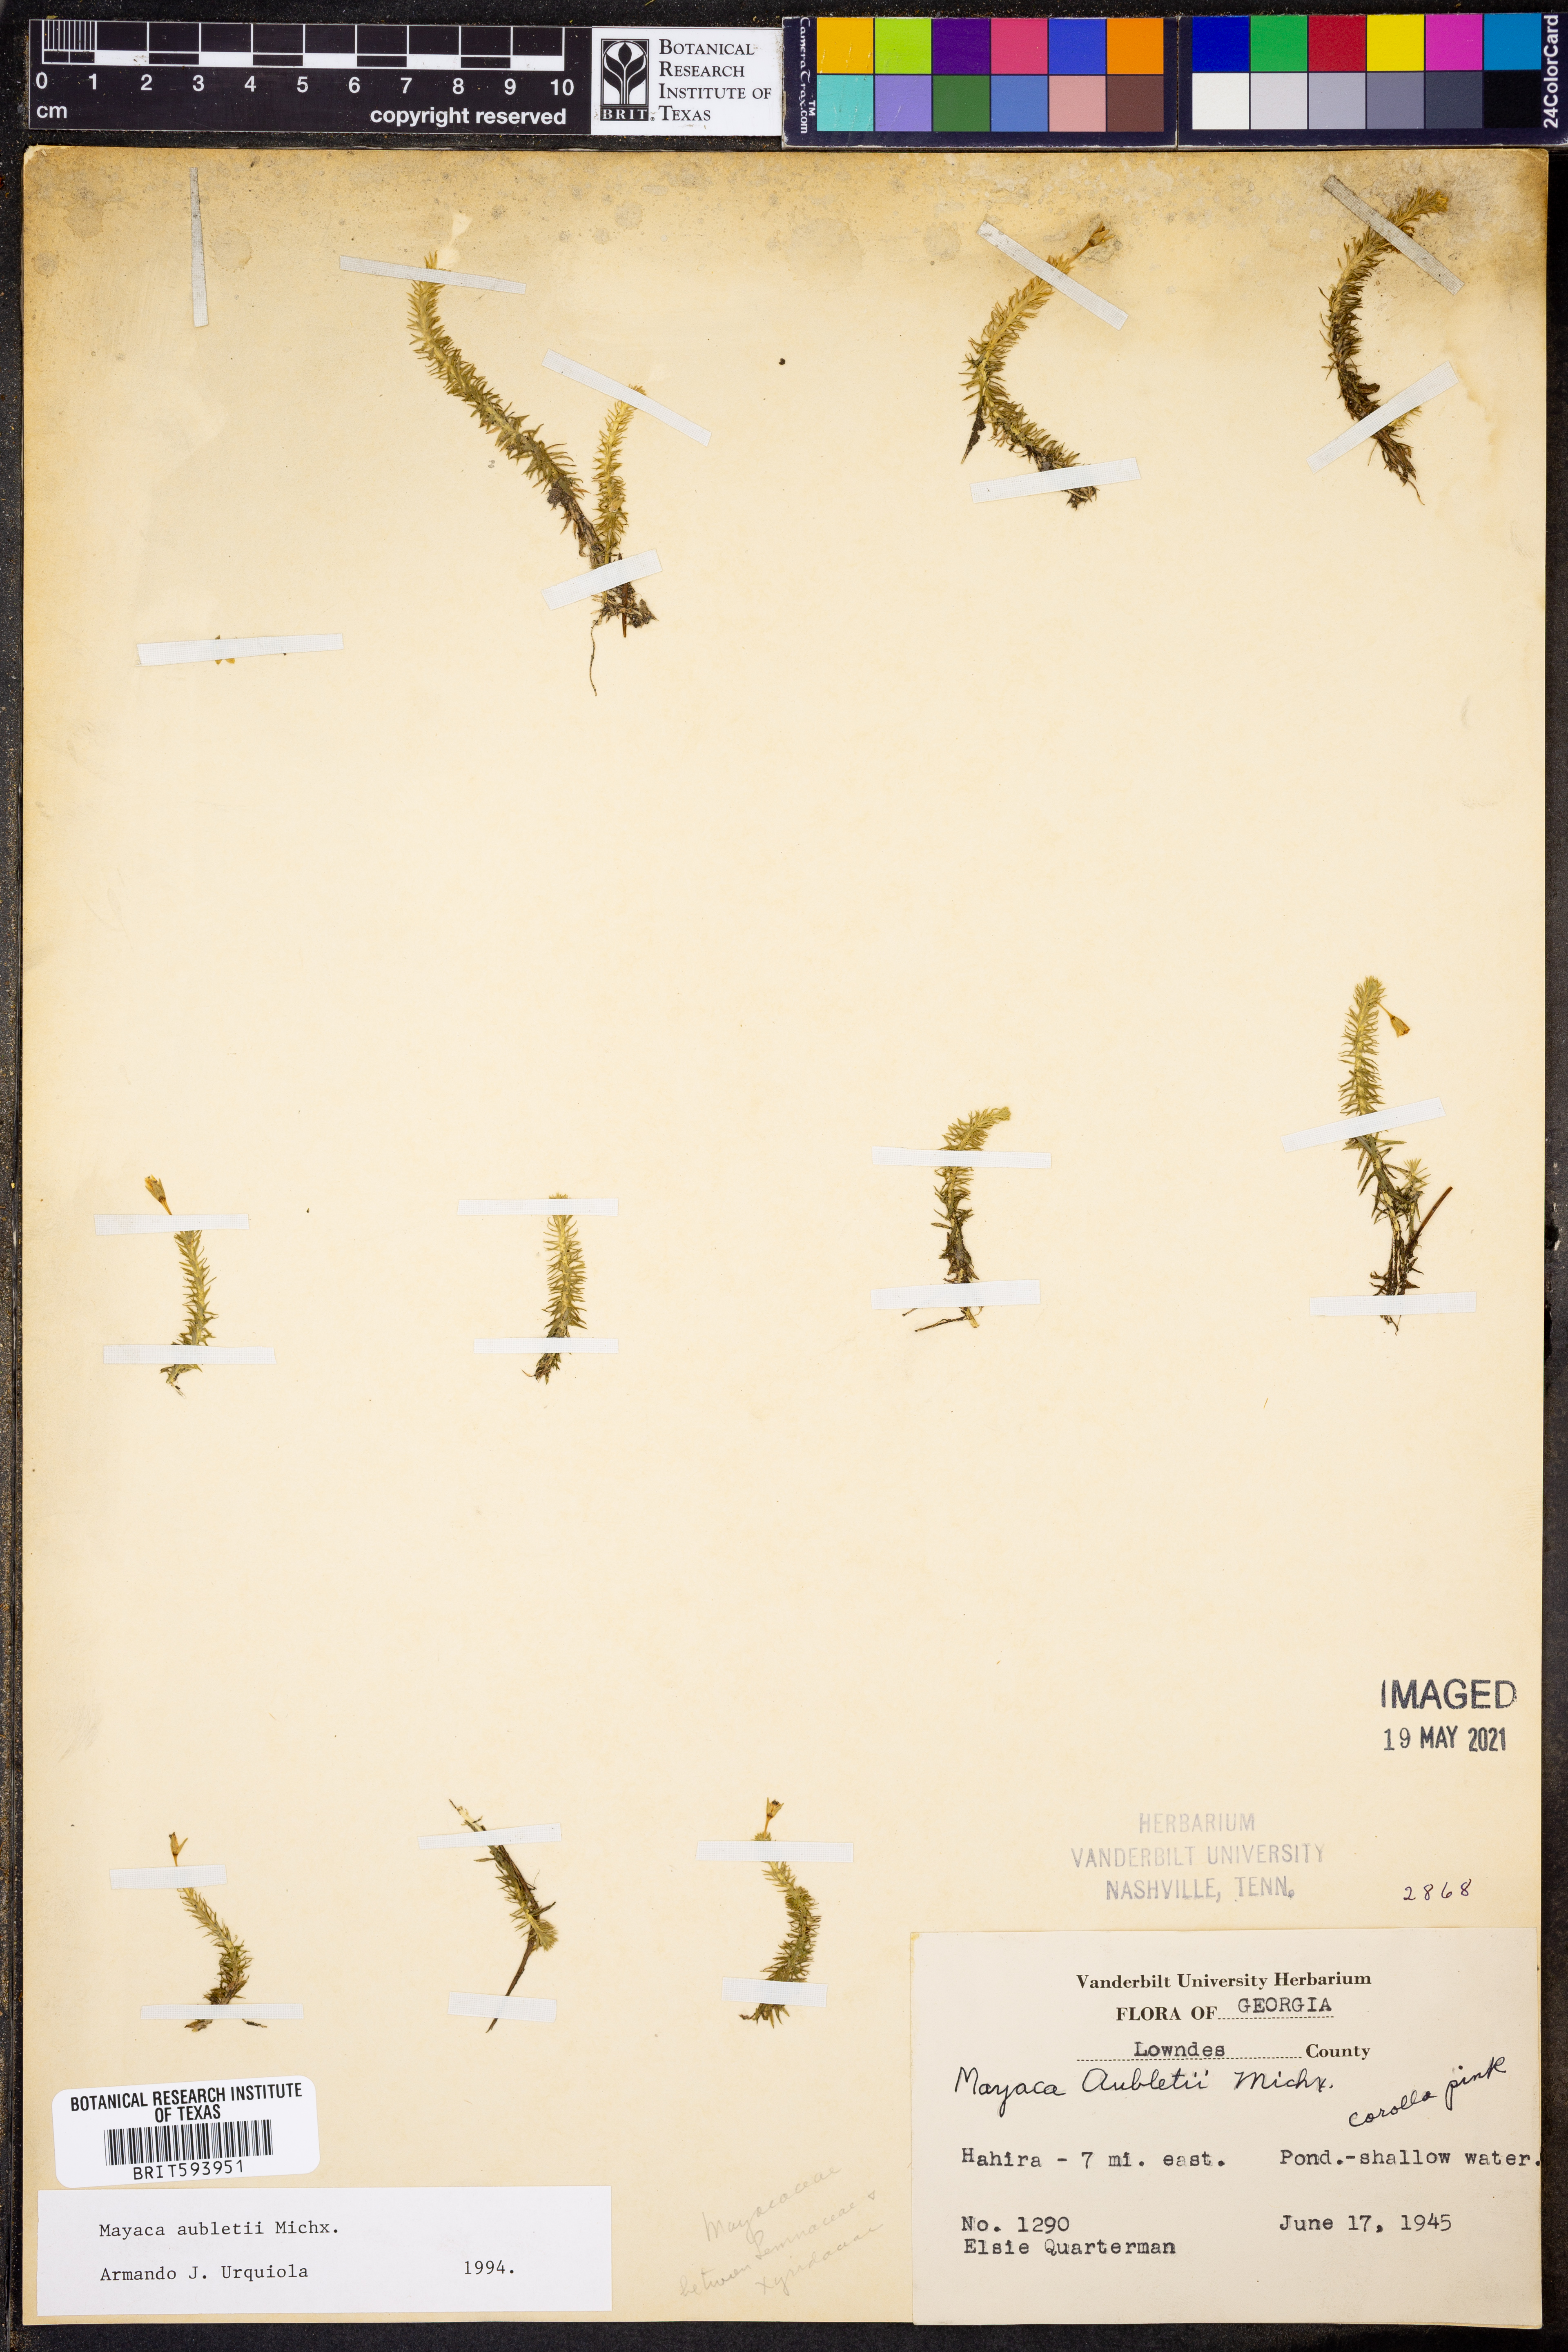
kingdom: Plantae
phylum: Tracheophyta
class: Liliopsida
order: Poales
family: Mayacaceae
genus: Mayaca
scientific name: Mayaca fluviatilis
